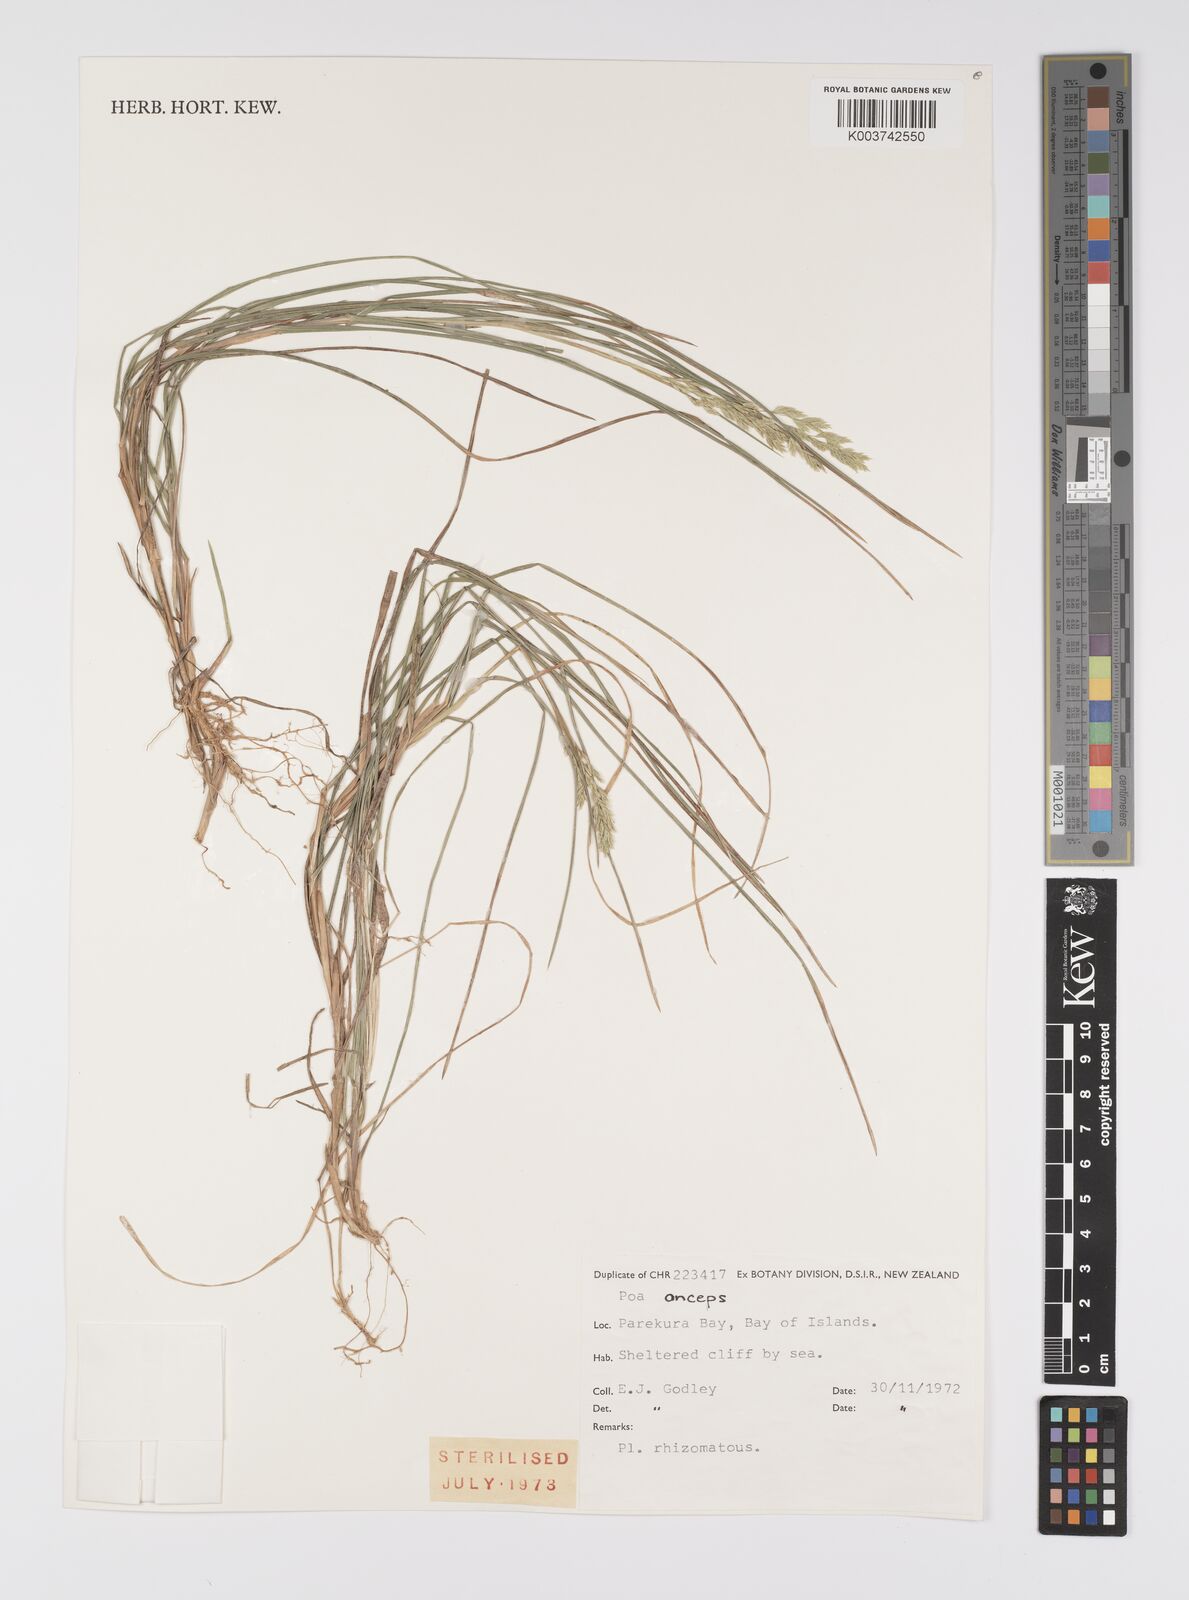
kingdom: Plantae
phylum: Tracheophyta
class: Liliopsida
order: Poales
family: Poaceae
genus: Poa
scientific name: Poa anceps
